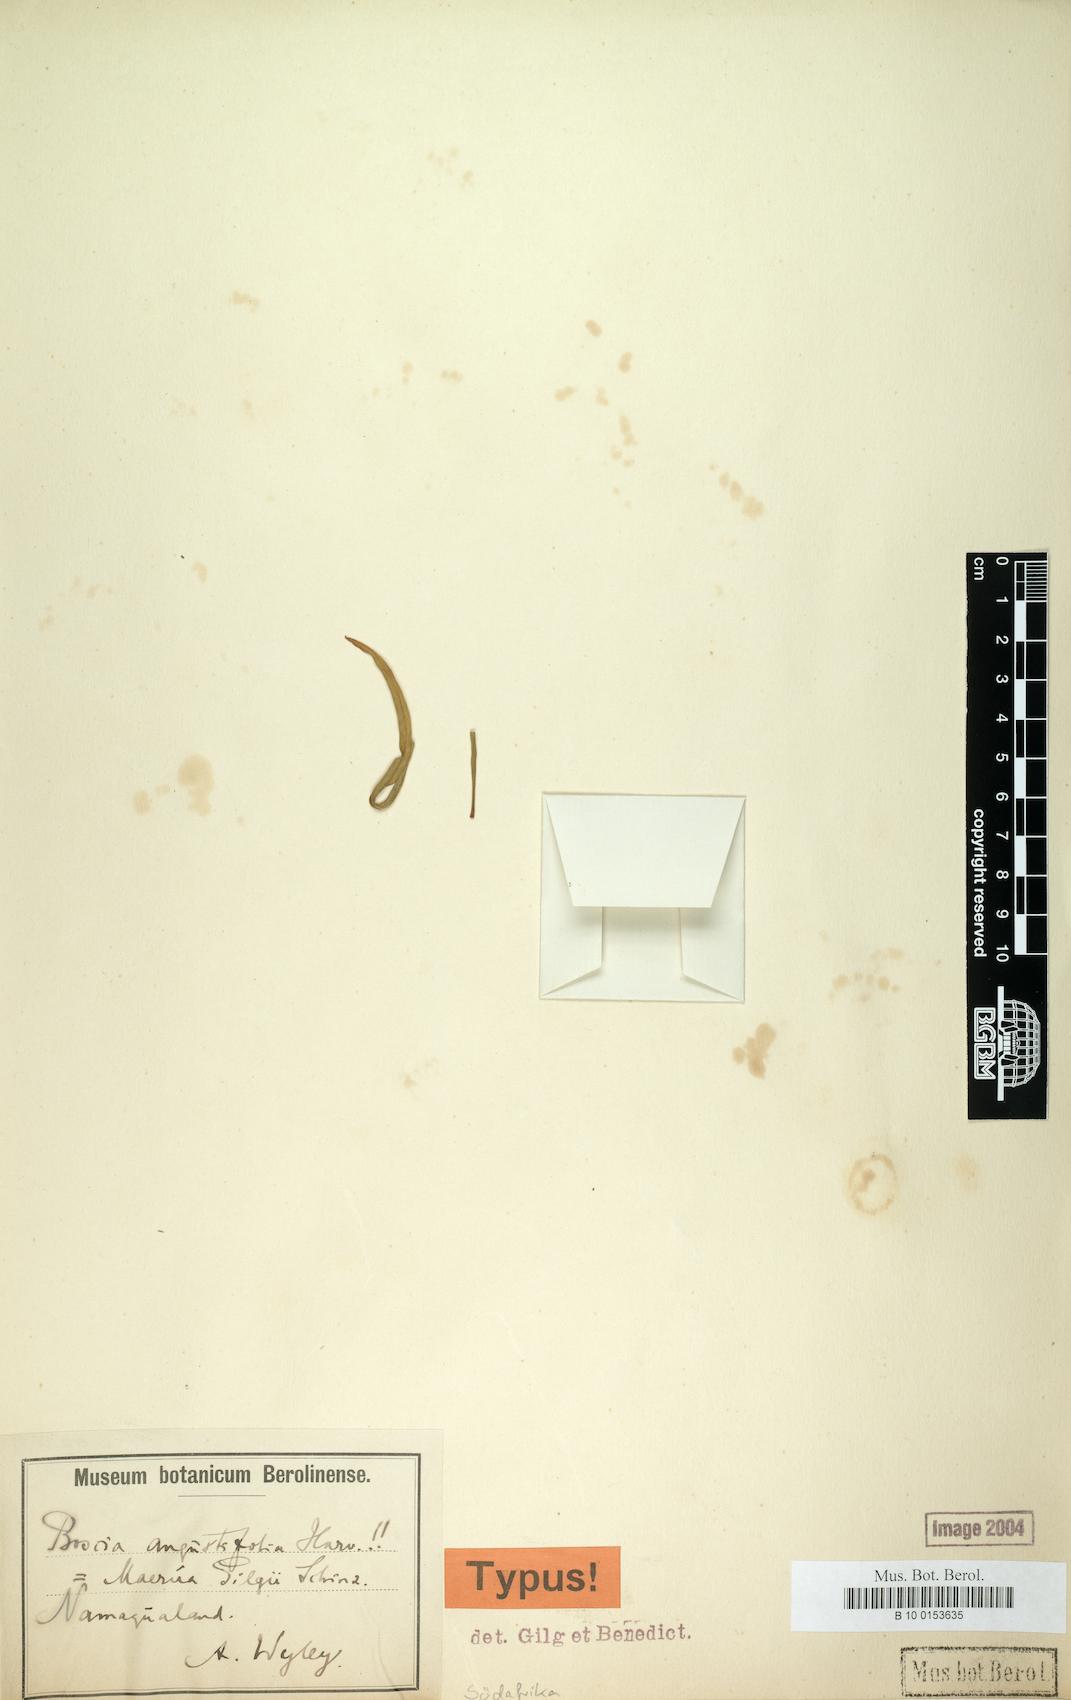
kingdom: Plantae
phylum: Tracheophyta
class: Magnoliopsida
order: Brassicales
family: Capparaceae
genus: Maerua
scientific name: Maerua gilgii
